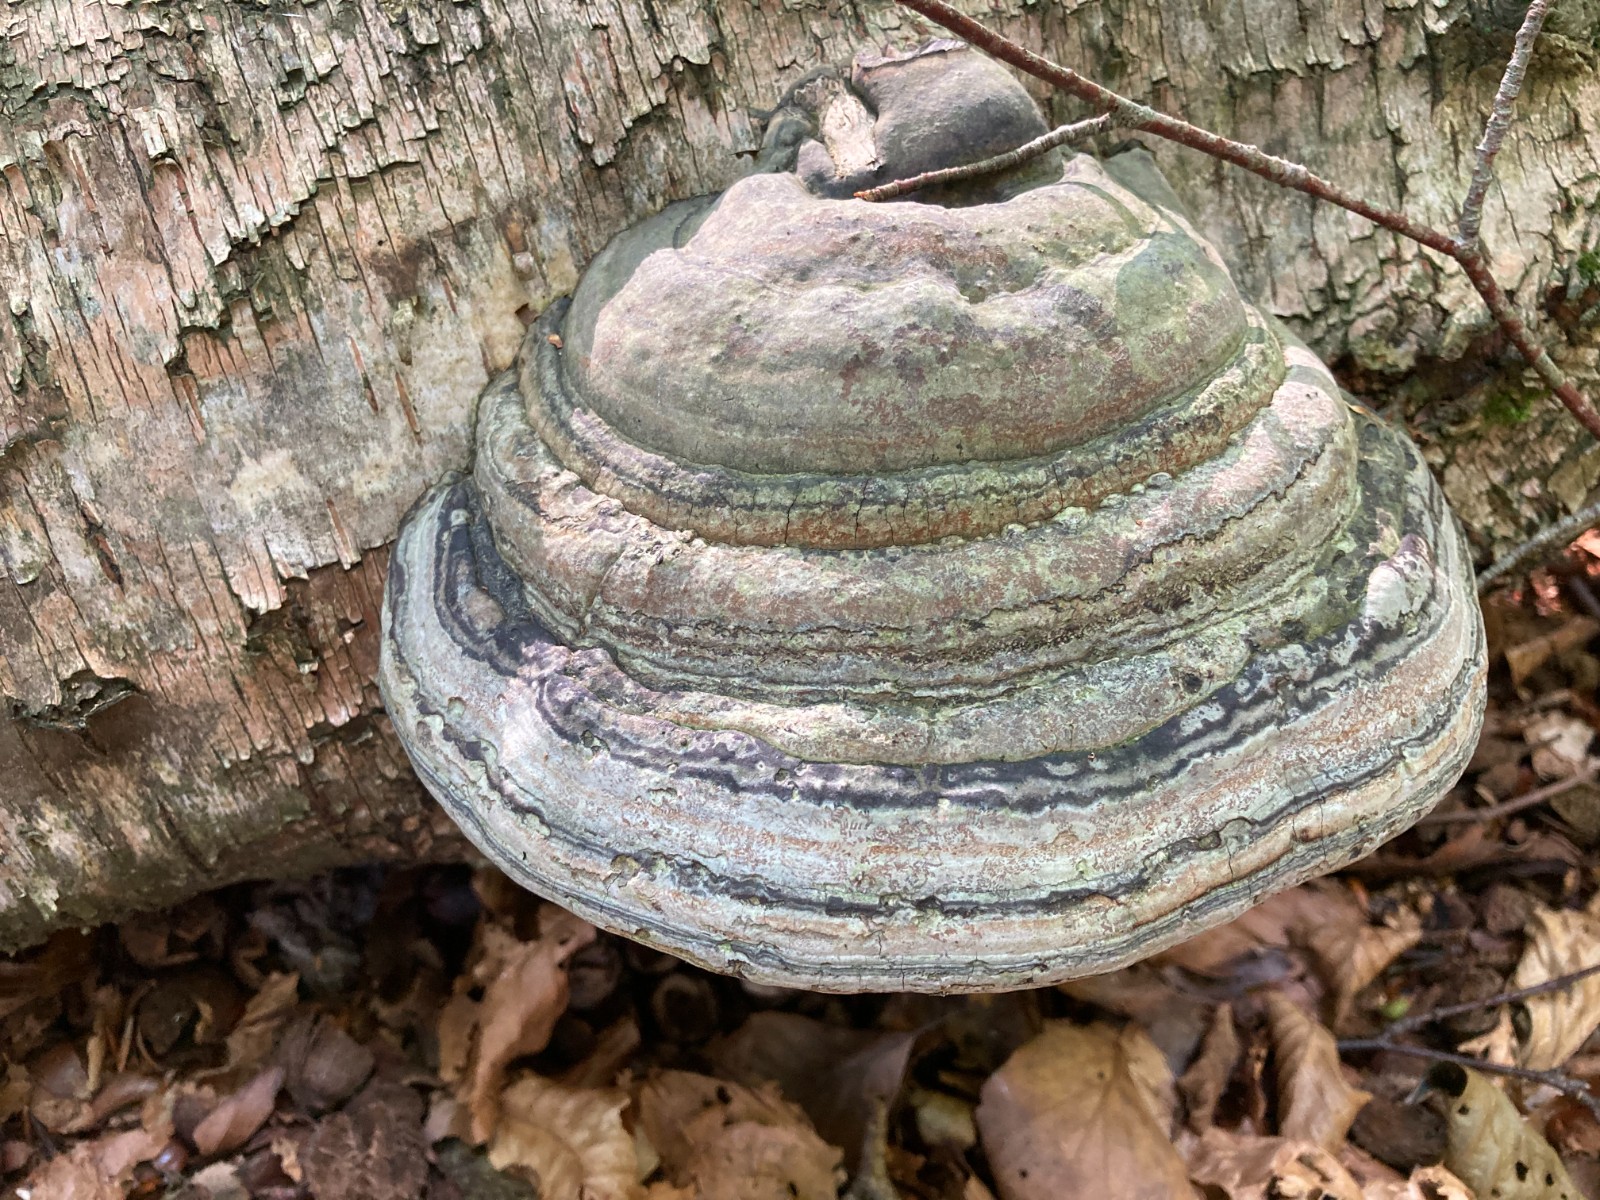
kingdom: Fungi
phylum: Basidiomycota
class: Agaricomycetes
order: Polyporales
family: Polyporaceae
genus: Fomes
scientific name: Fomes fomentarius
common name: tøndersvamp
